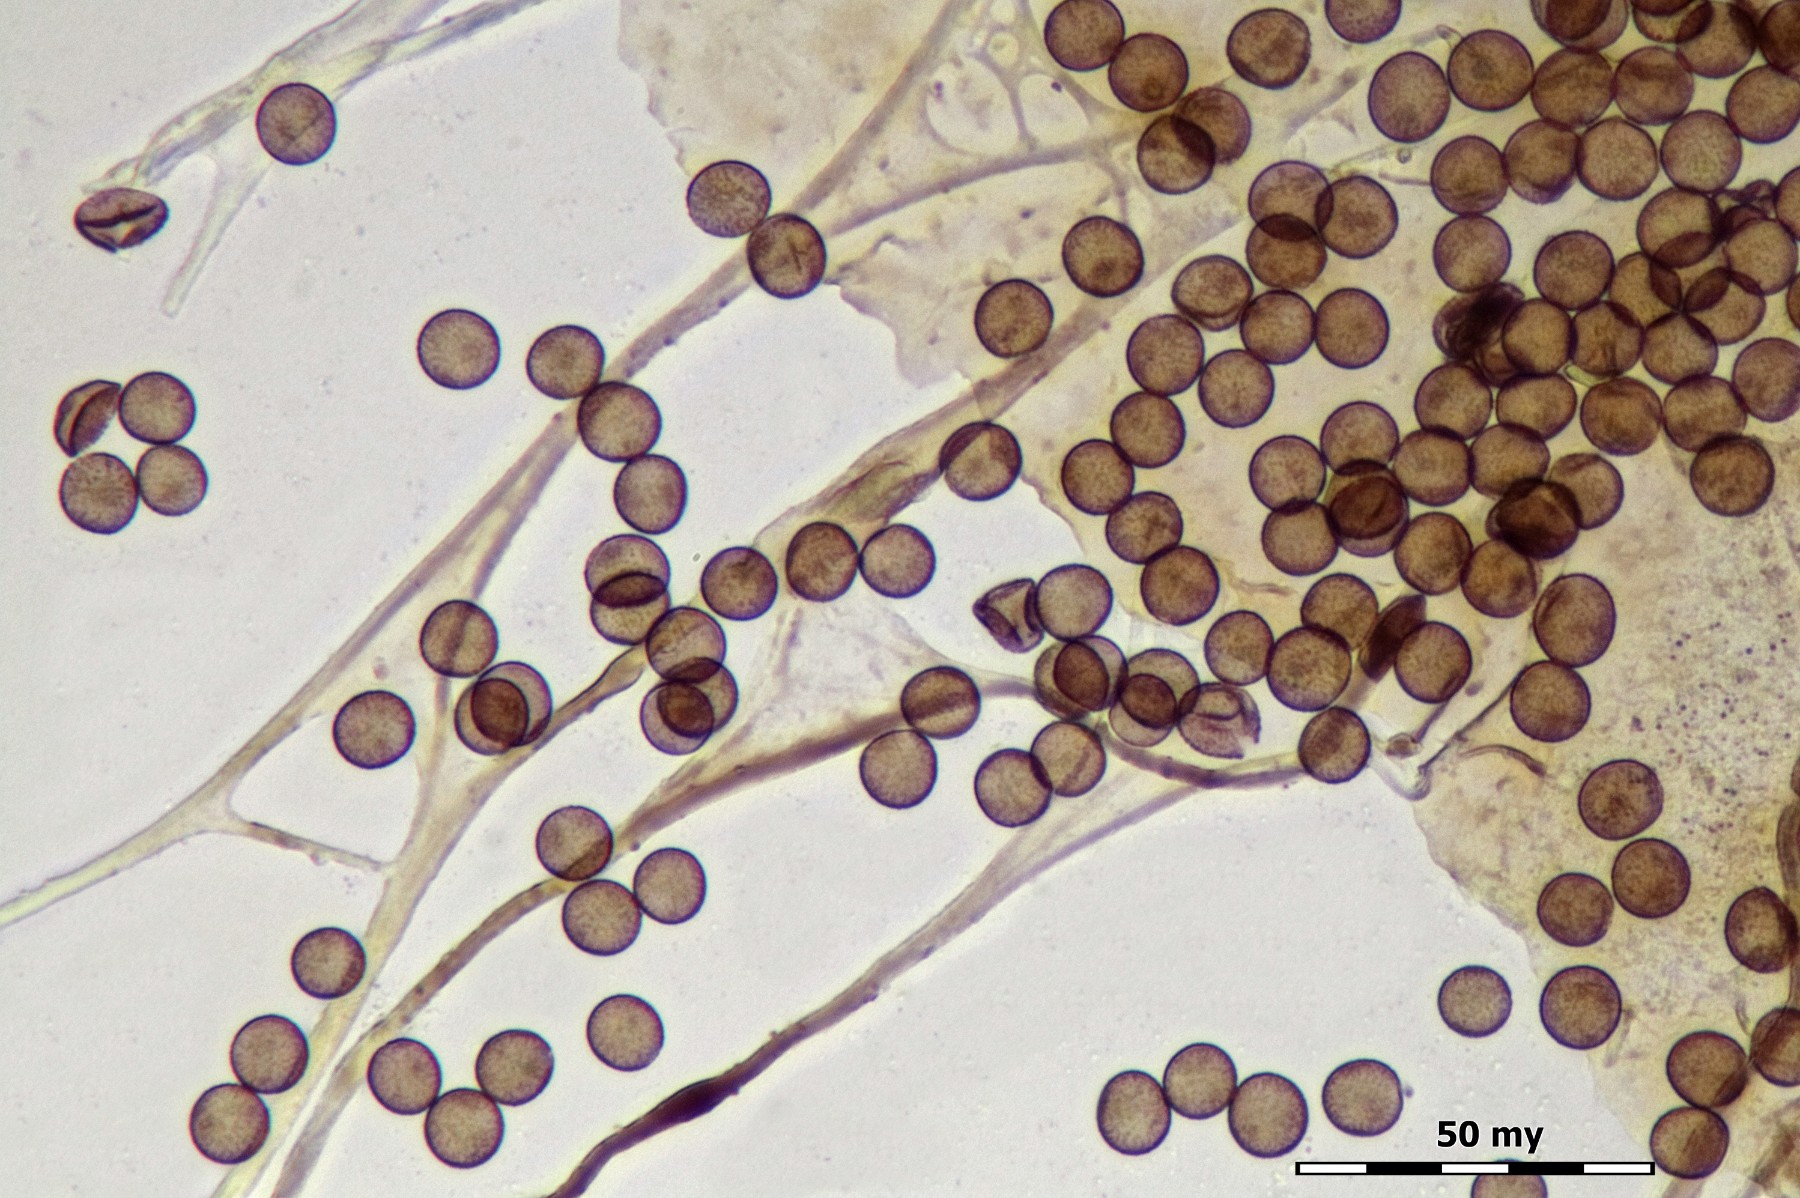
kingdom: Protozoa
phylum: Mycetozoa
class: Myxomycetes
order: Physarales
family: Didymiaceae
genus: Diderma
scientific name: Diderma chondrioderma
